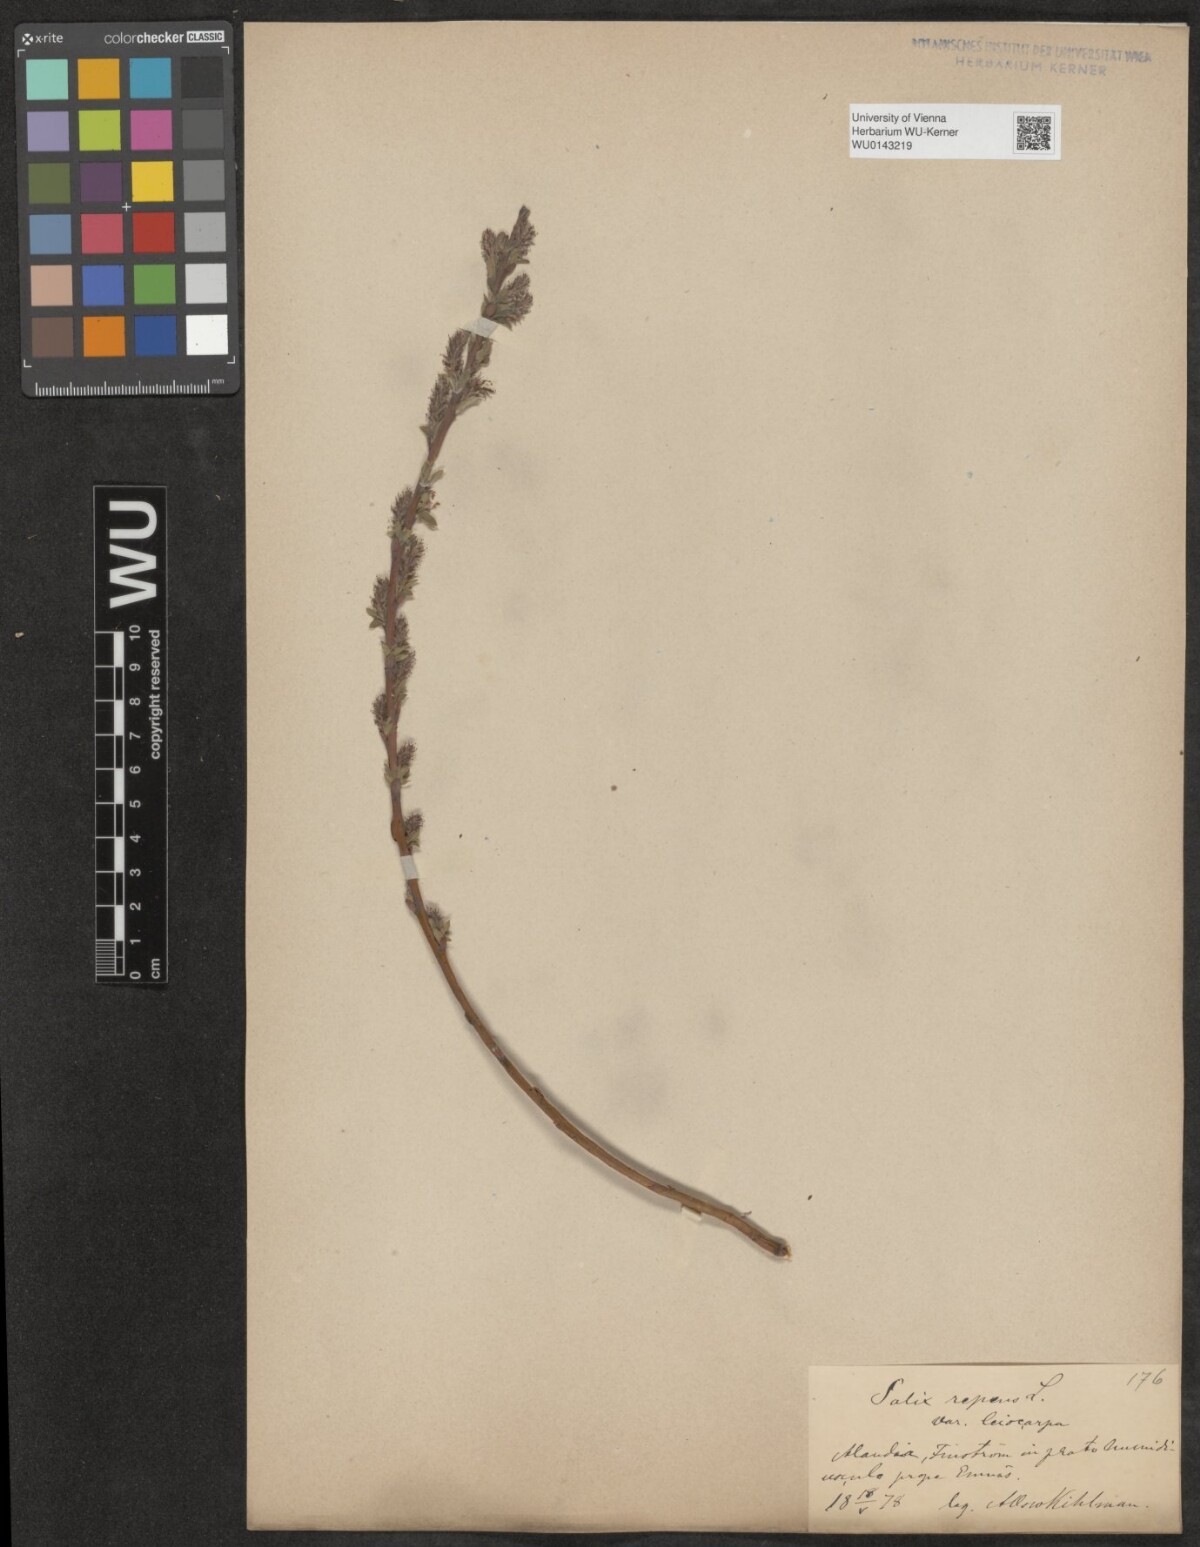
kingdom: Plantae
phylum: Tracheophyta
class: Magnoliopsida
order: Malpighiales
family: Salicaceae
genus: Salix
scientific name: Salix repens
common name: Creeping willow
